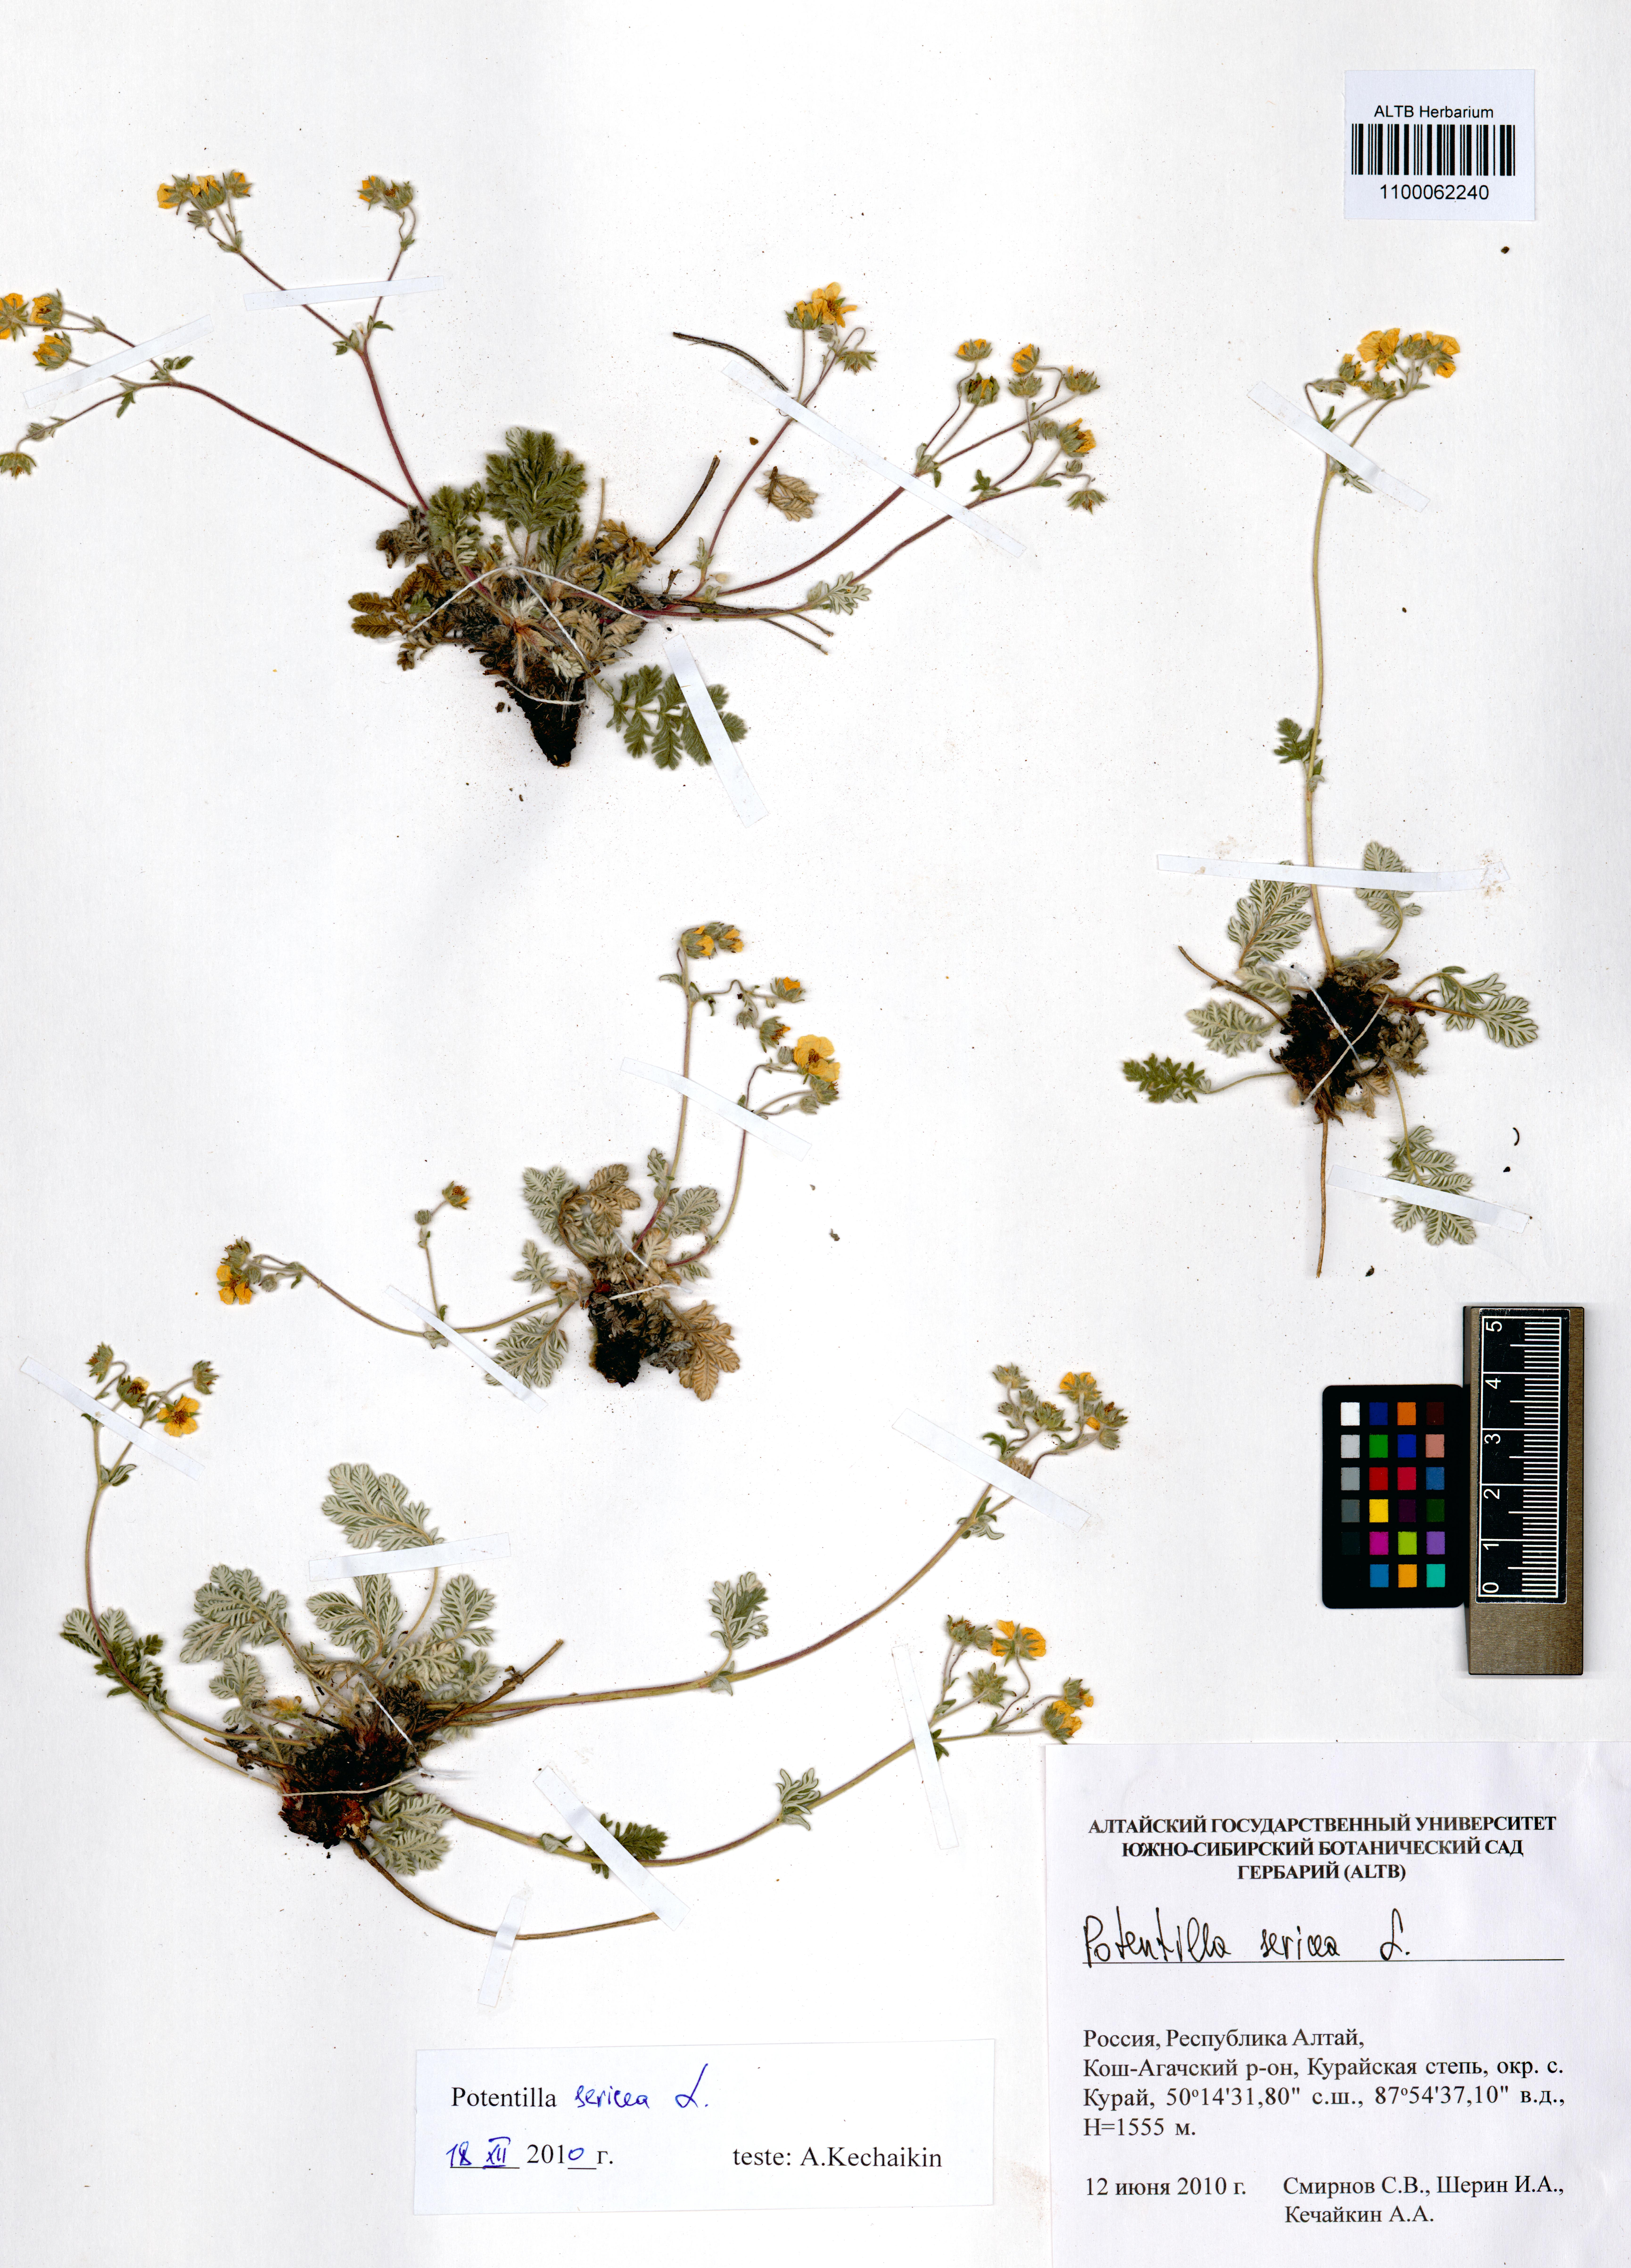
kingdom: Plantae
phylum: Tracheophyta
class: Magnoliopsida
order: Rosales
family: Rosaceae
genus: Potentilla
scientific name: Potentilla sericea
